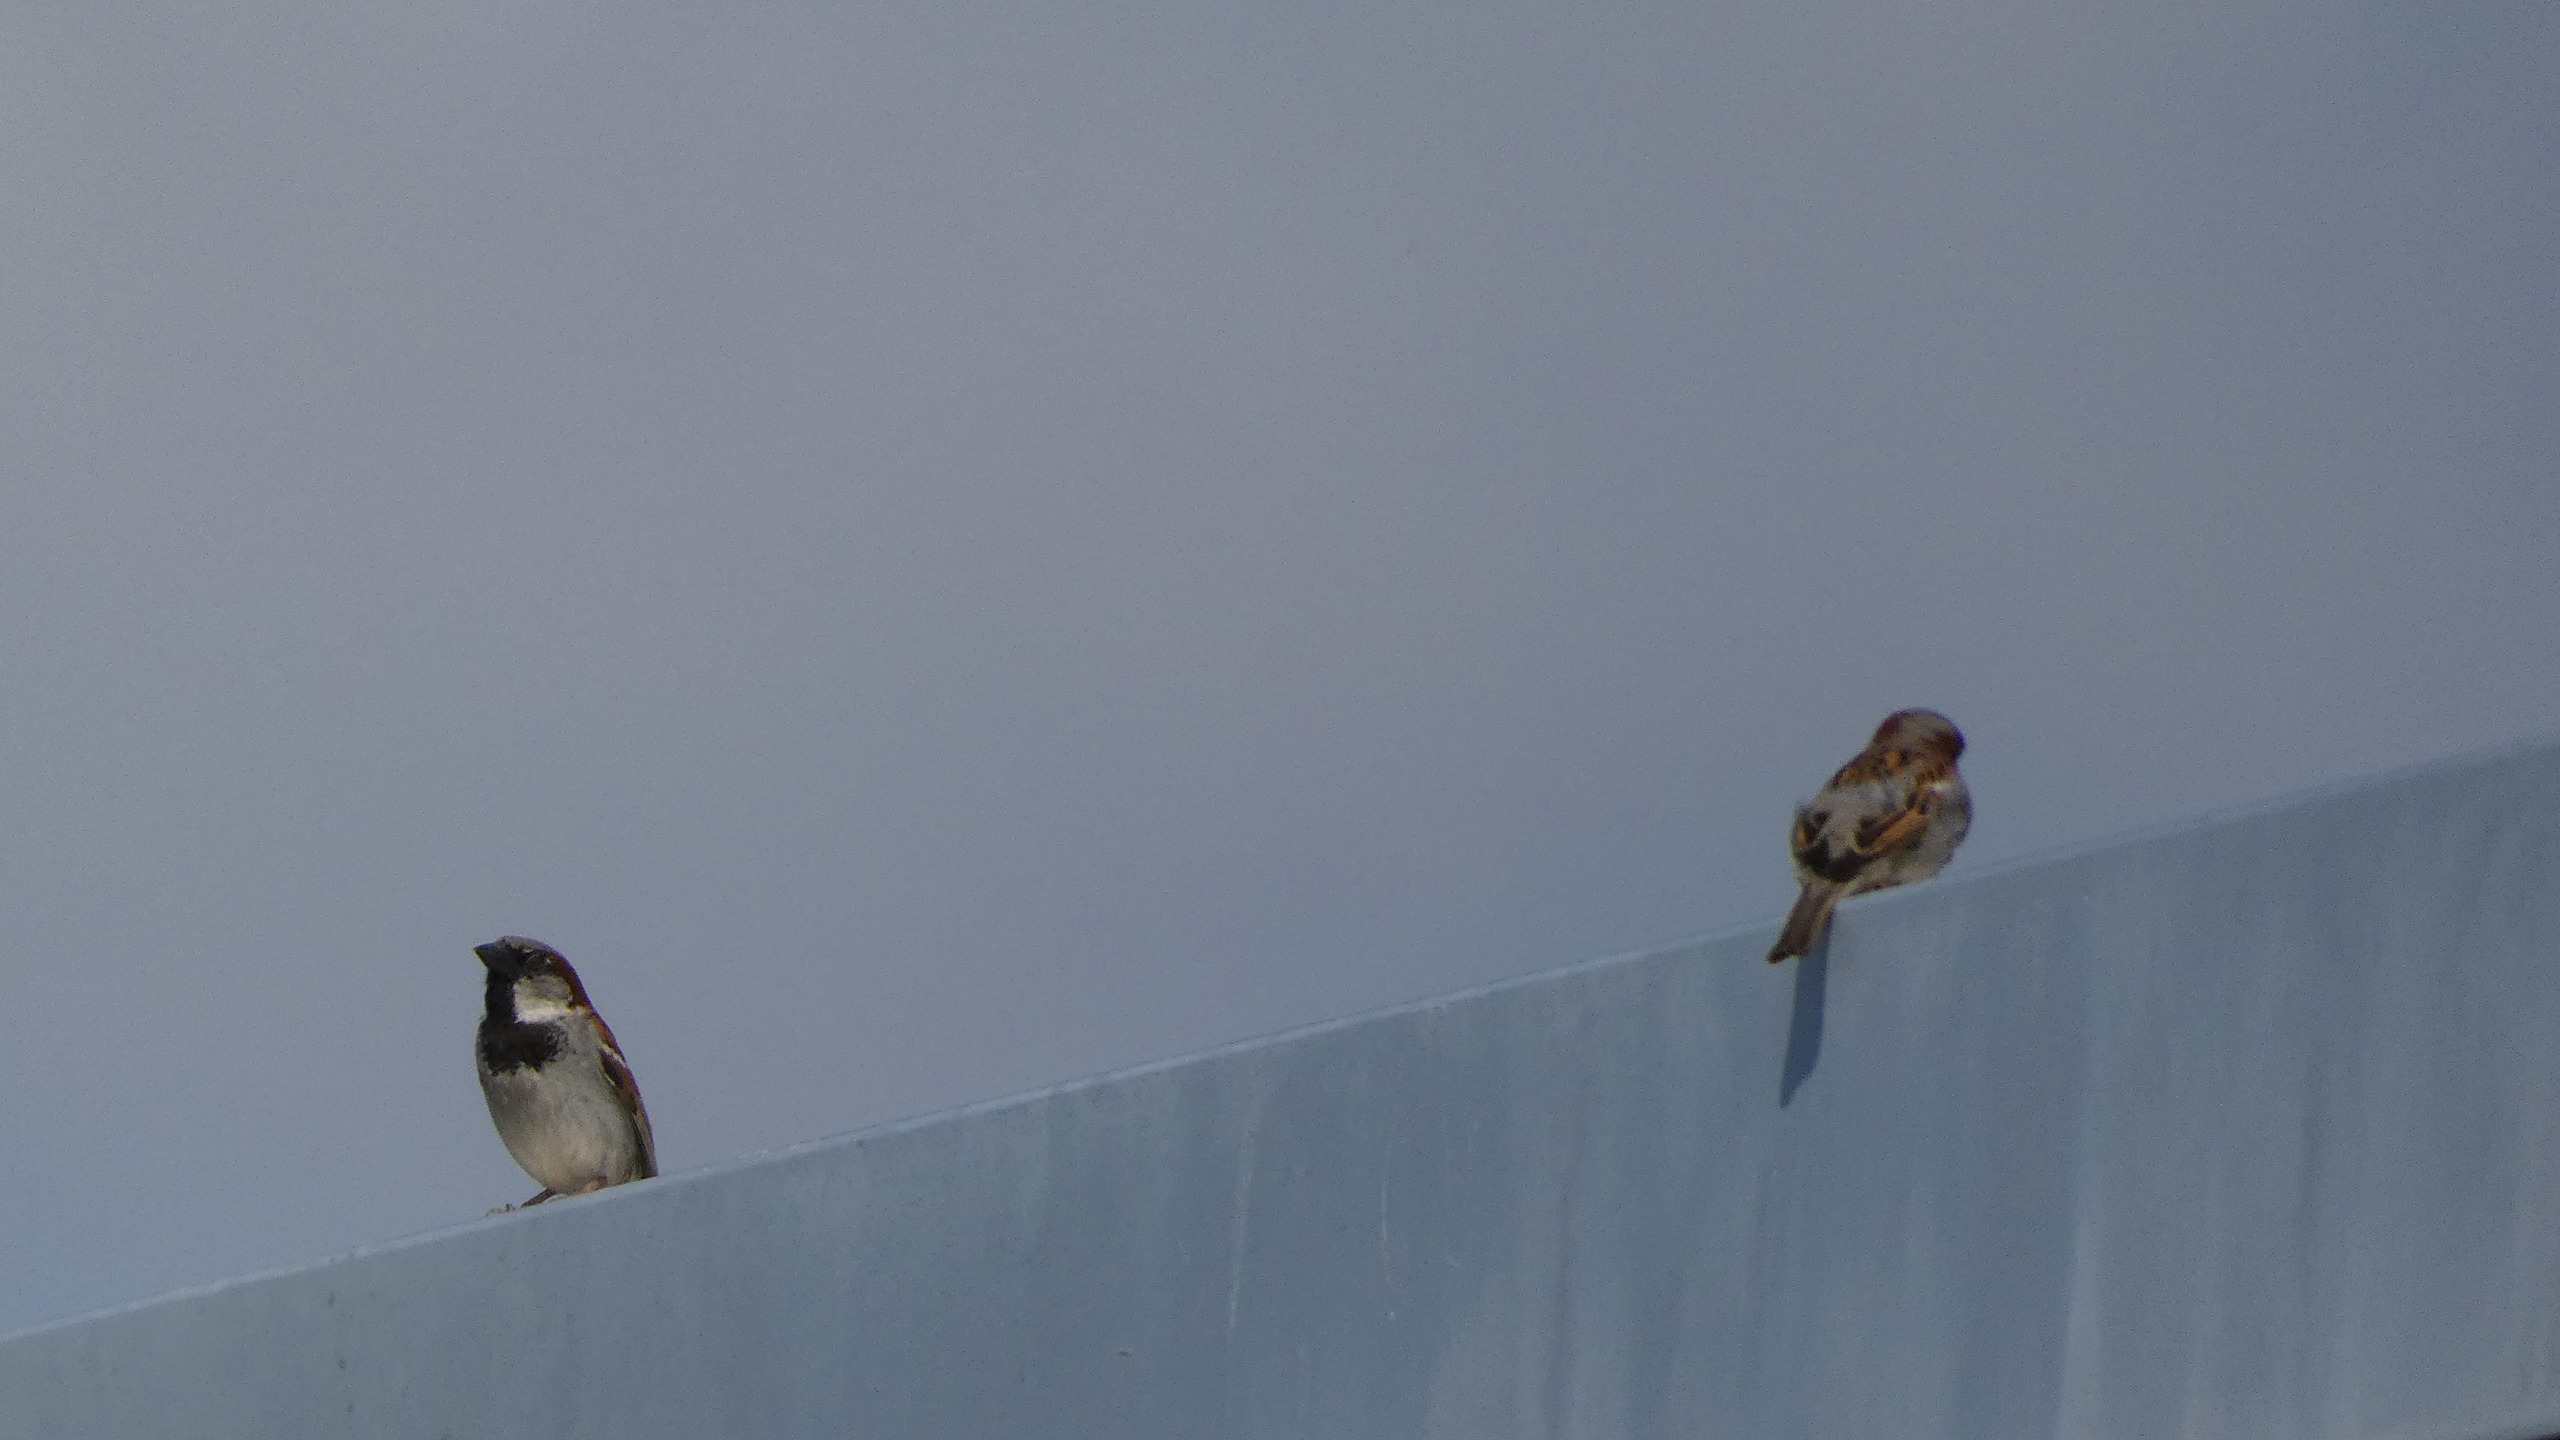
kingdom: Animalia
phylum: Chordata
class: Aves
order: Passeriformes
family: Passeridae
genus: Passer
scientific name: Passer domesticus
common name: Gråspurv
